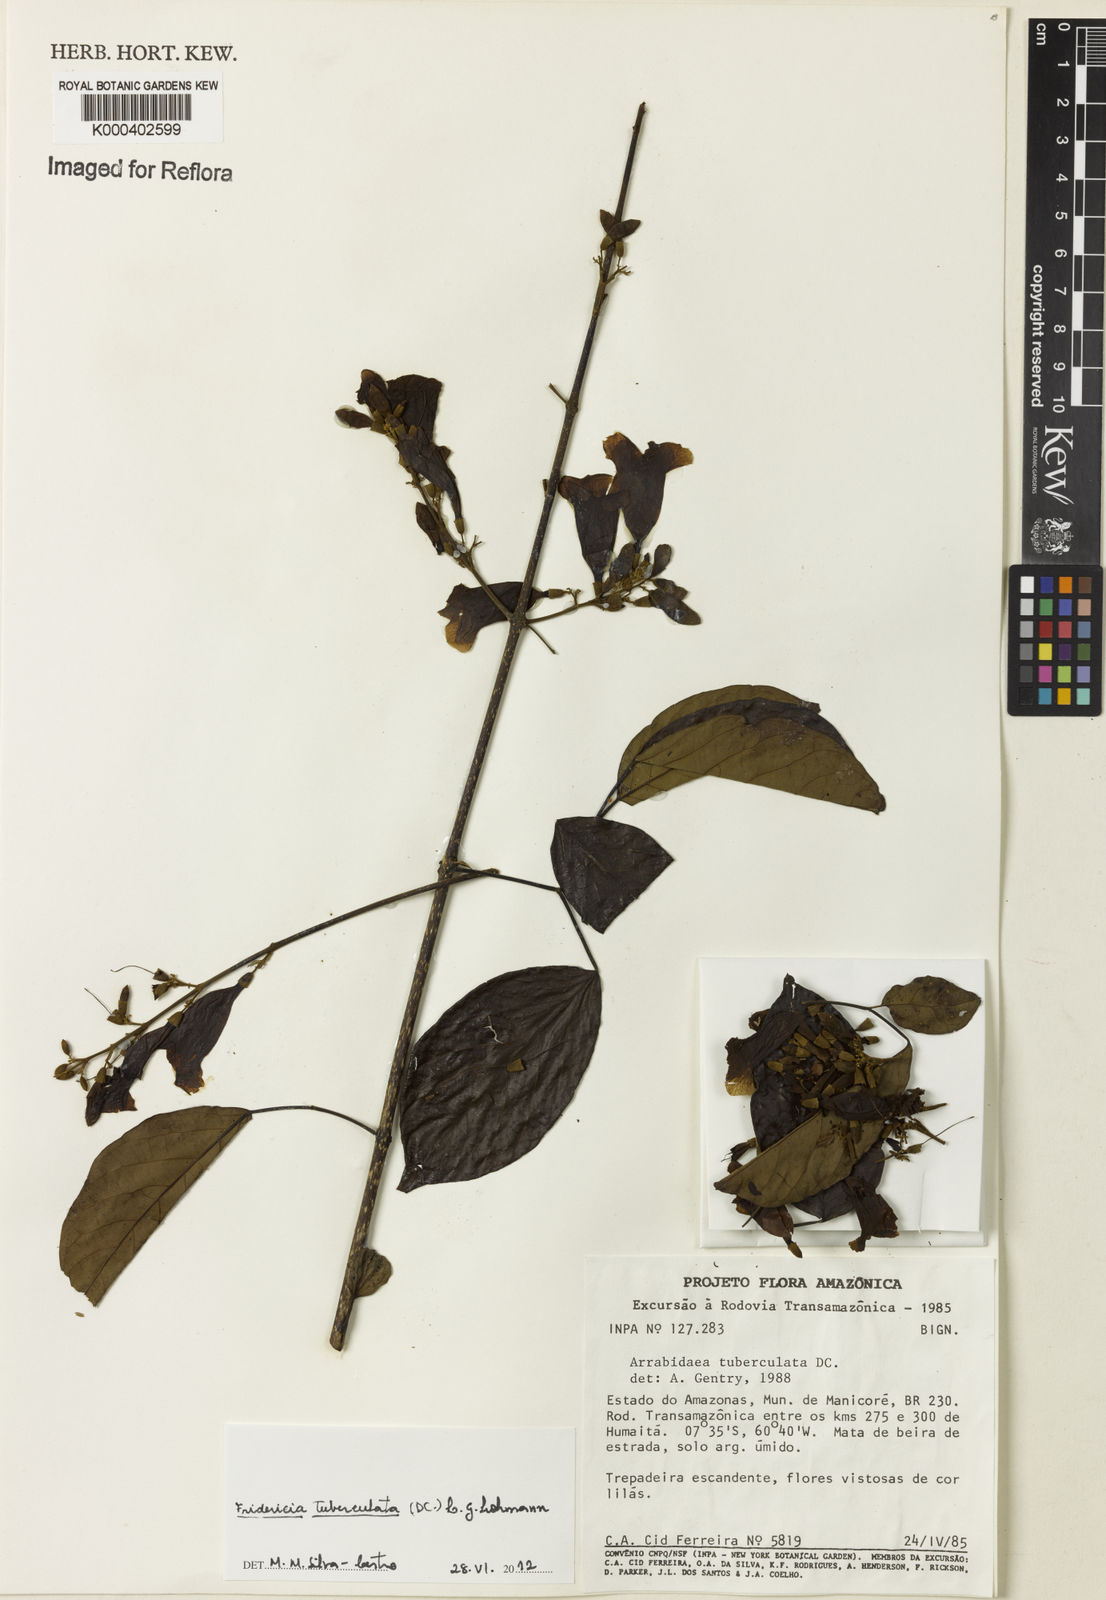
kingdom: Plantae
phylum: Tracheophyta
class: Magnoliopsida
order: Lamiales
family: Bignoniaceae
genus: Fridericia
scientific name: Fridericia tuberculata
